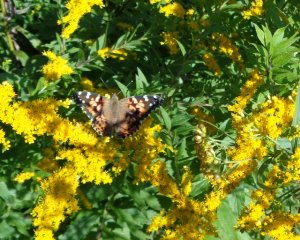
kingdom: Animalia
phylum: Arthropoda
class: Insecta
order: Lepidoptera
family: Nymphalidae
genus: Vanessa
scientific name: Vanessa cardui
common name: Painted Lady
